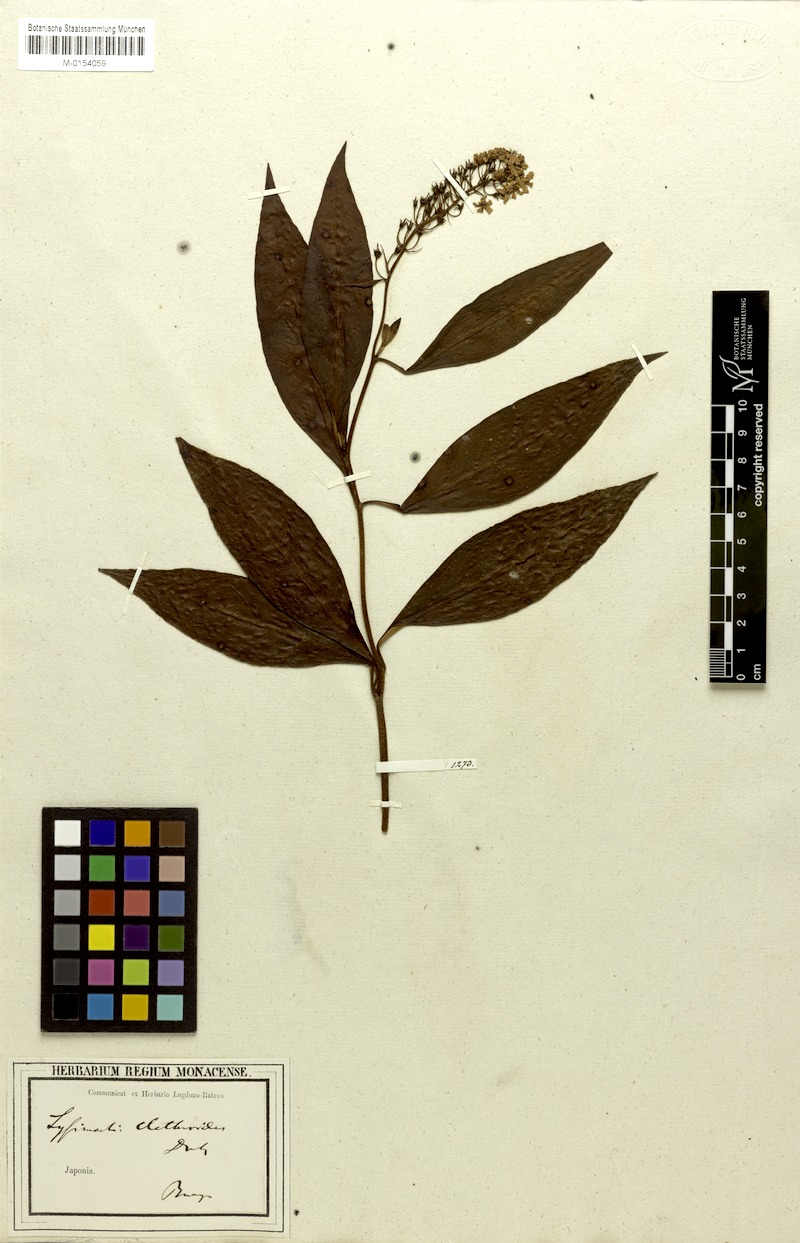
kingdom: Plantae
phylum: Tracheophyta
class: Magnoliopsida
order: Ericales
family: Primulaceae
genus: Lysimachia
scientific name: Lysimachia clethroides
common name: Gooseneck loosestrife
